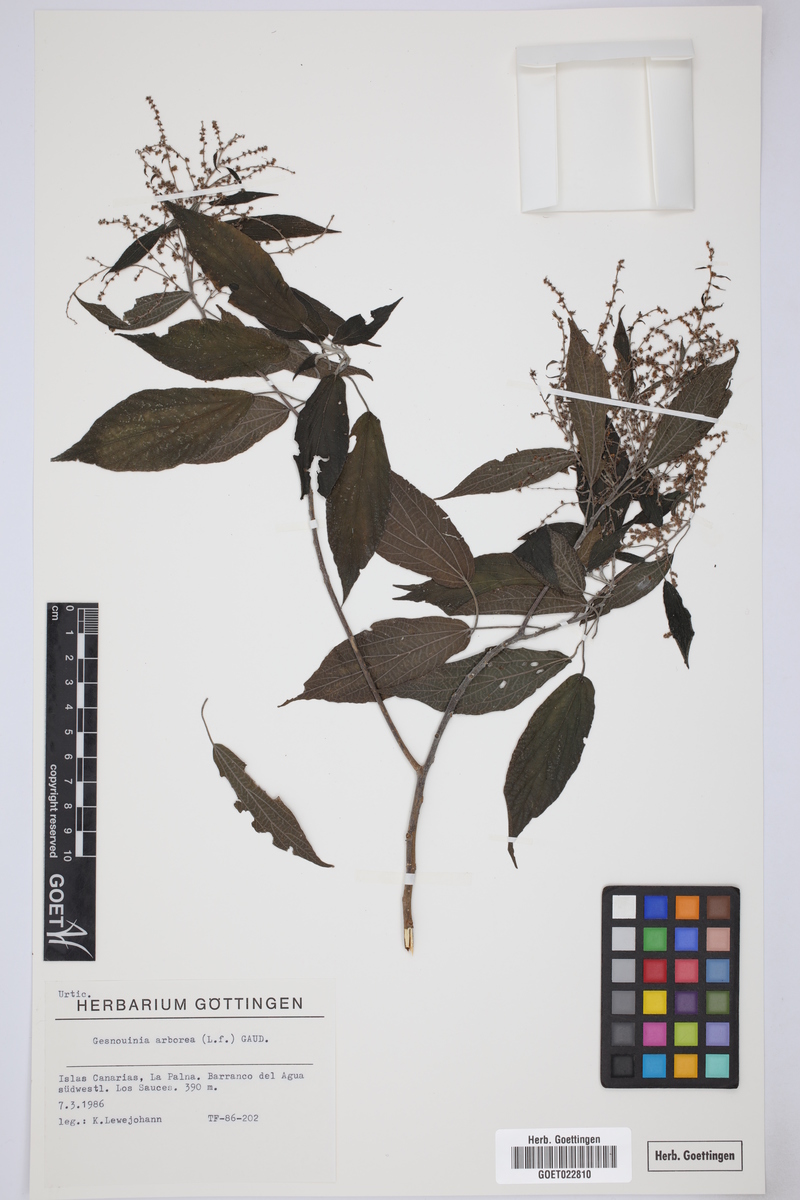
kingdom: Plantae
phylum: Tracheophyta
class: Magnoliopsida
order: Rosales
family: Urticaceae
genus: Gesnouinia
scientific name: Gesnouinia arborea
